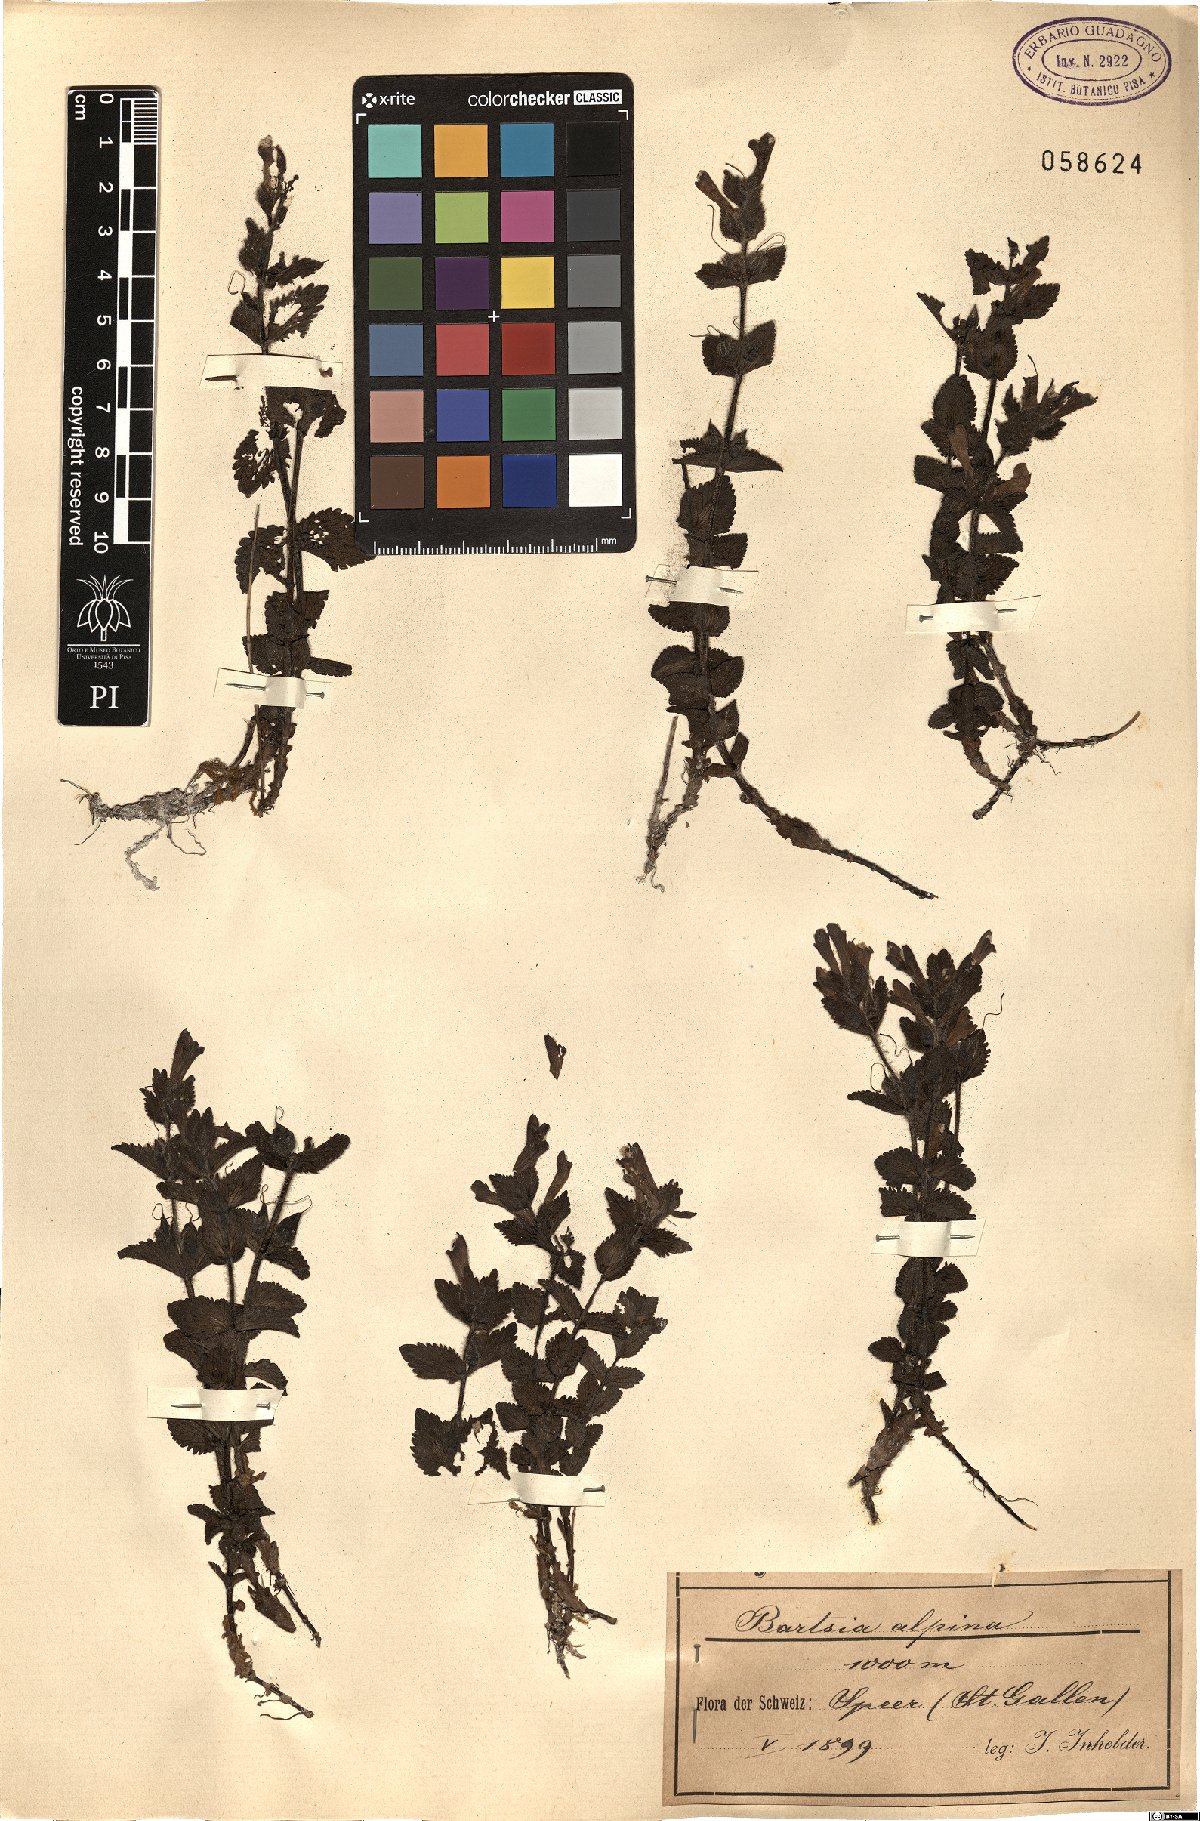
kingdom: Plantae
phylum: Tracheophyta
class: Magnoliopsida
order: Lamiales
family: Orobanchaceae
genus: Bartsia
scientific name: Bartsia alpina
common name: Alpine bartsia
